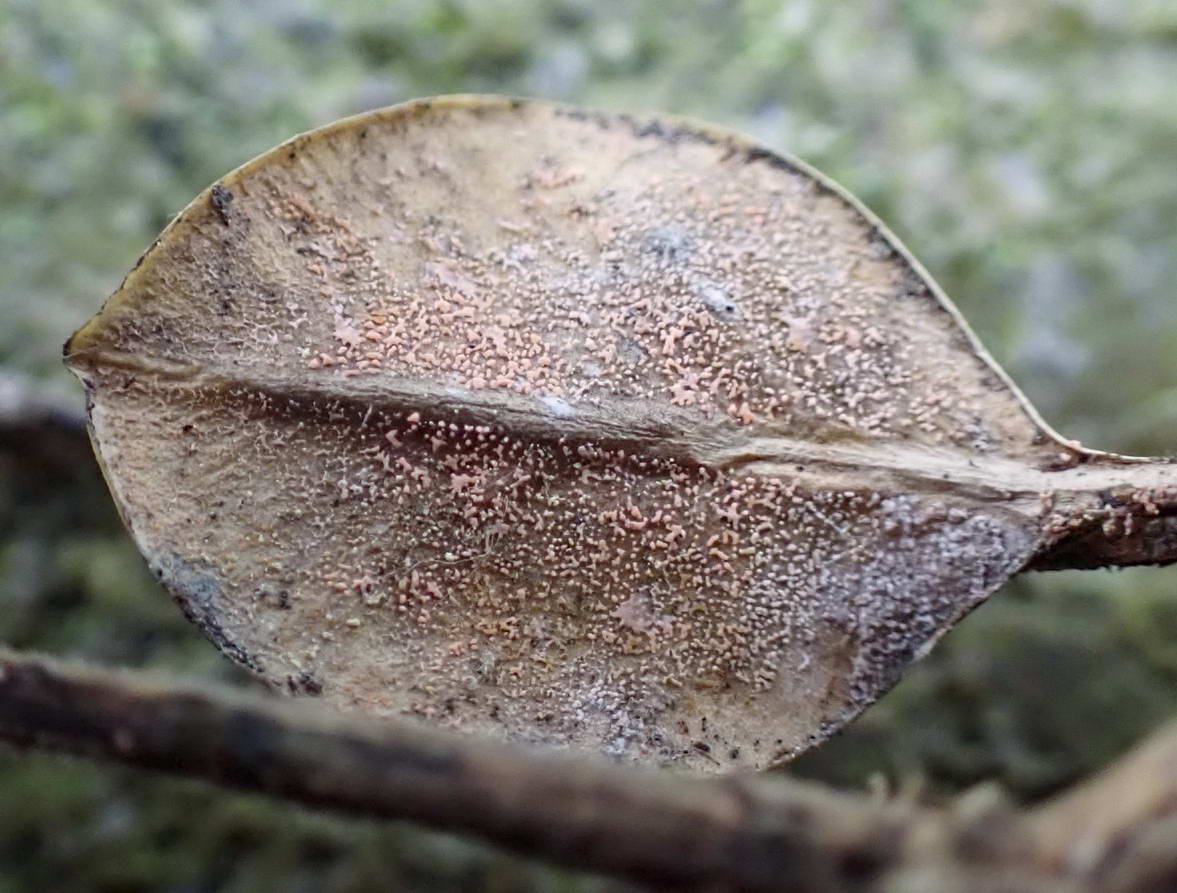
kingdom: Fungi
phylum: Ascomycota
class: Sordariomycetes
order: Hypocreales
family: Nectriaceae
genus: Pseudonectria
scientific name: Pseudonectria buxi
